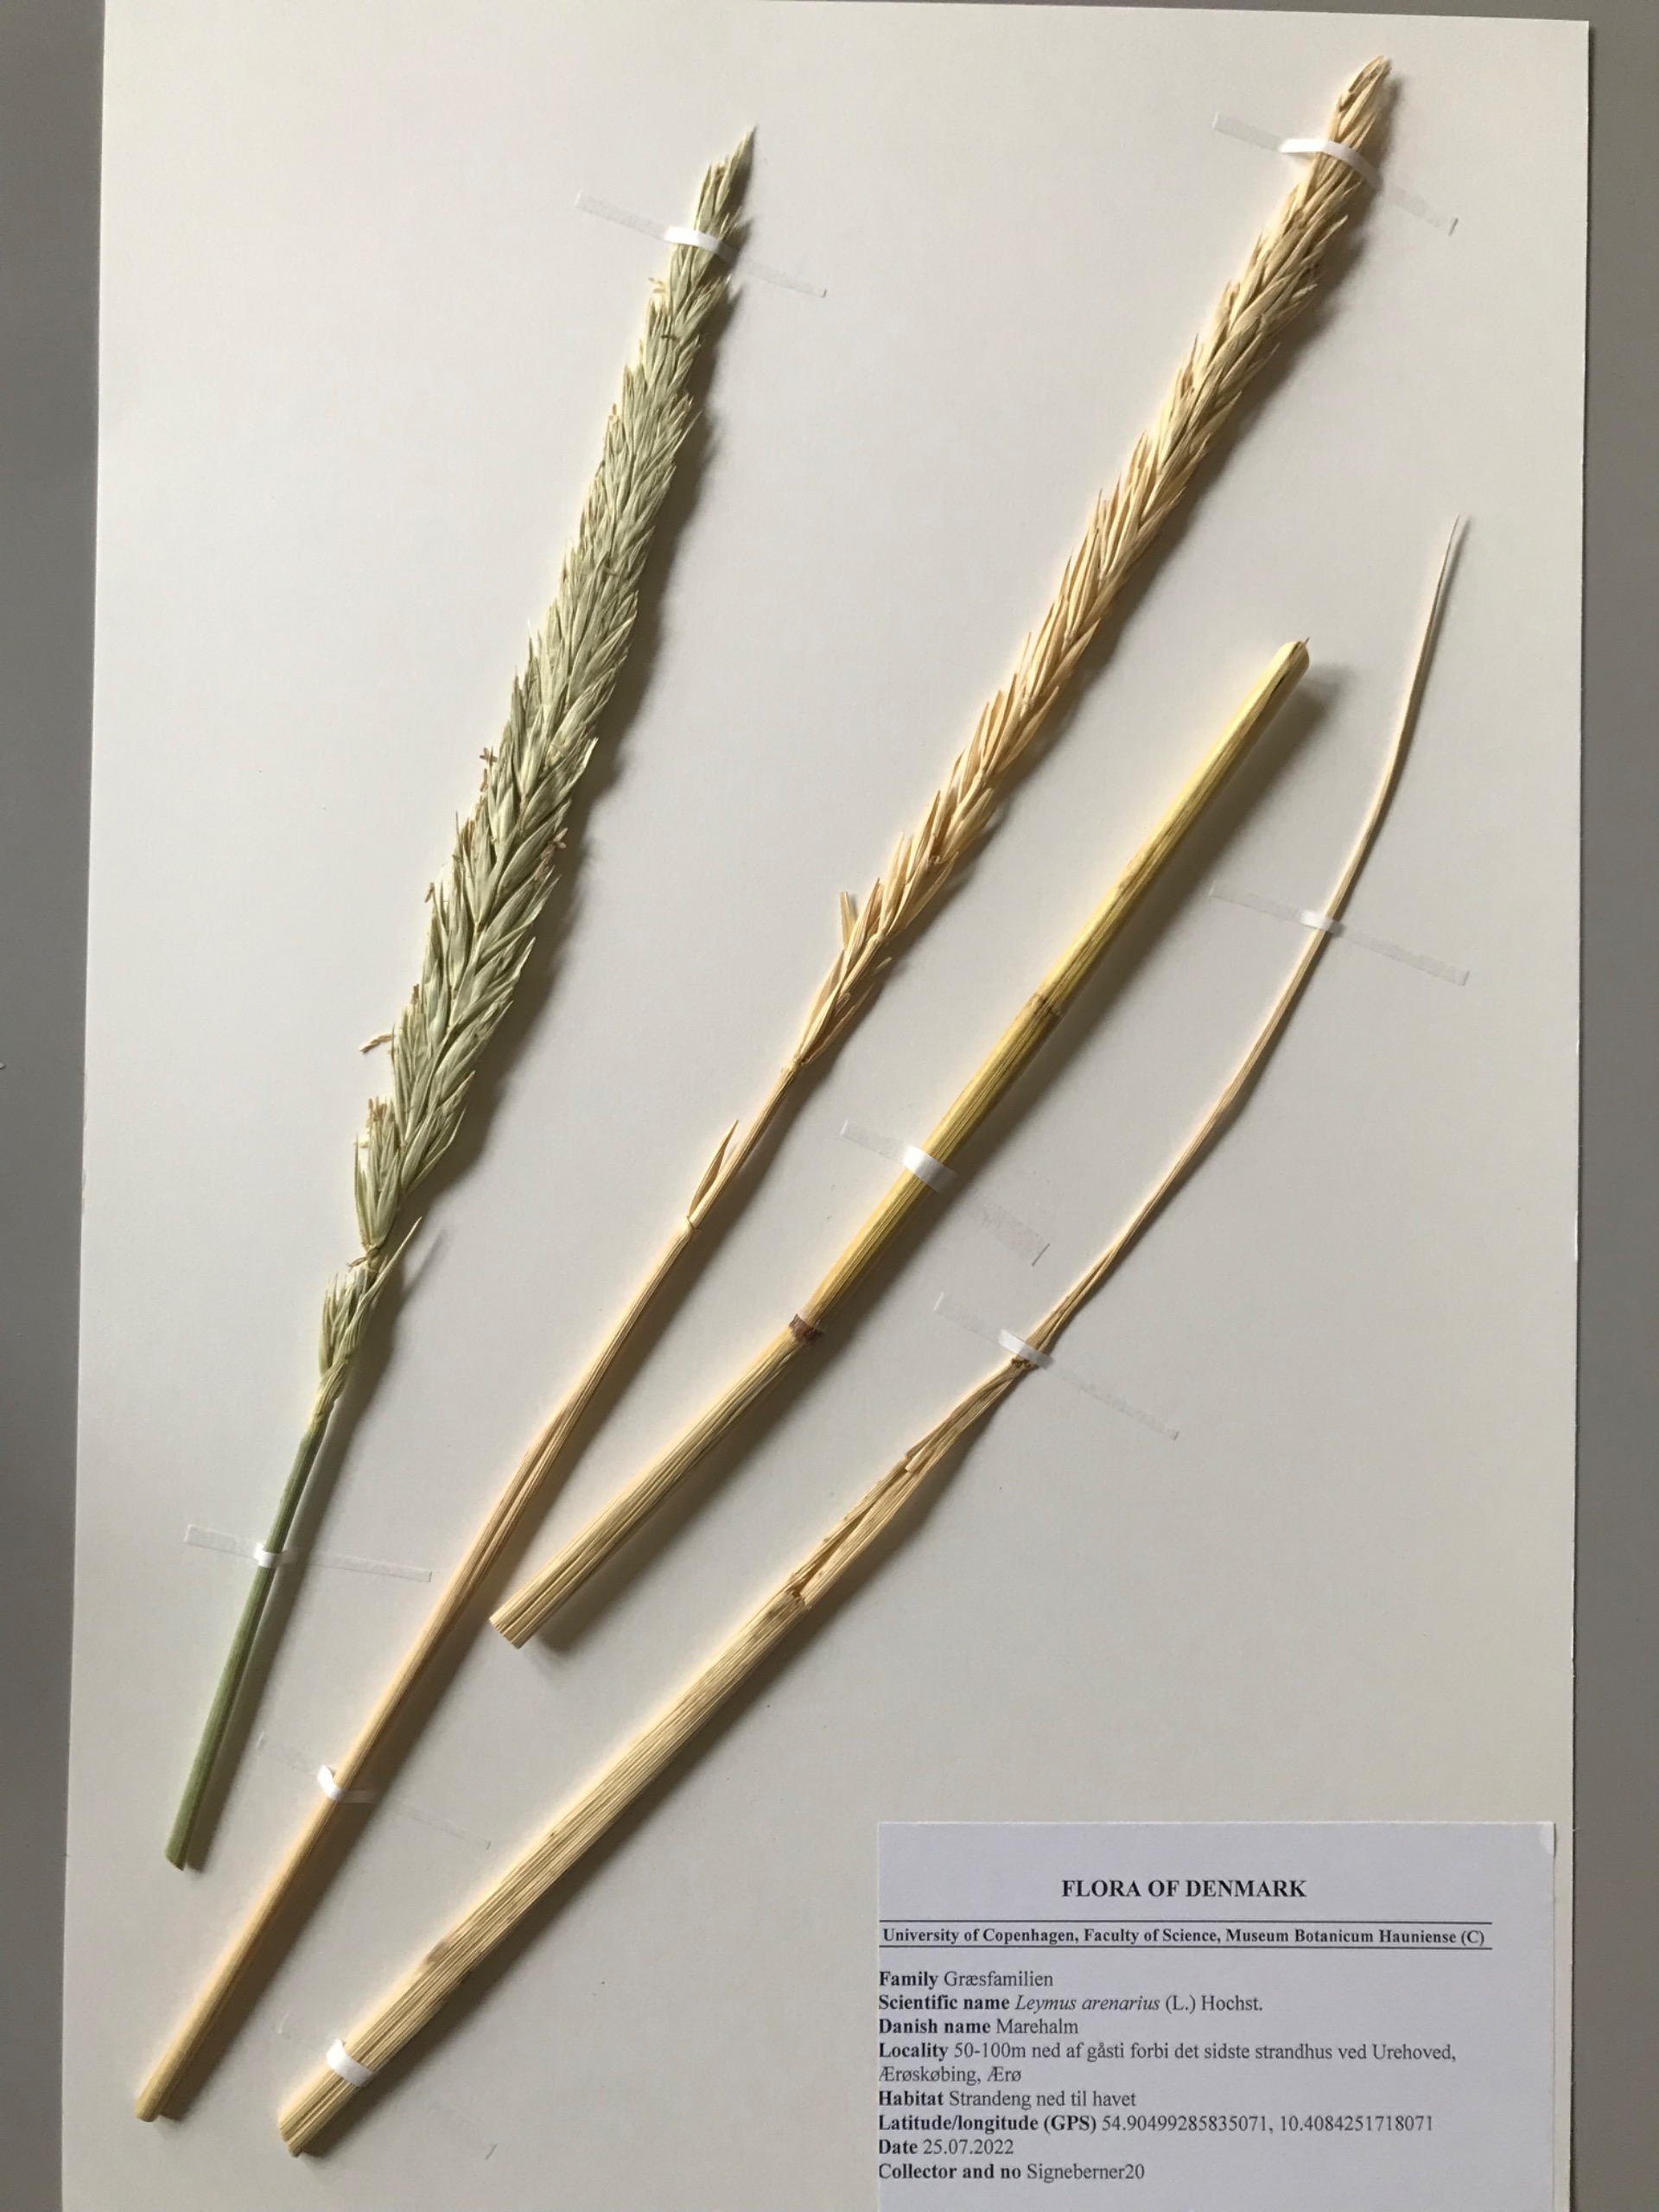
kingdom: Plantae
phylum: Tracheophyta
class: Liliopsida
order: Poales
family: Poaceae
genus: Leymus
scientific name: Leymus arenarius
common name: Marehalm
